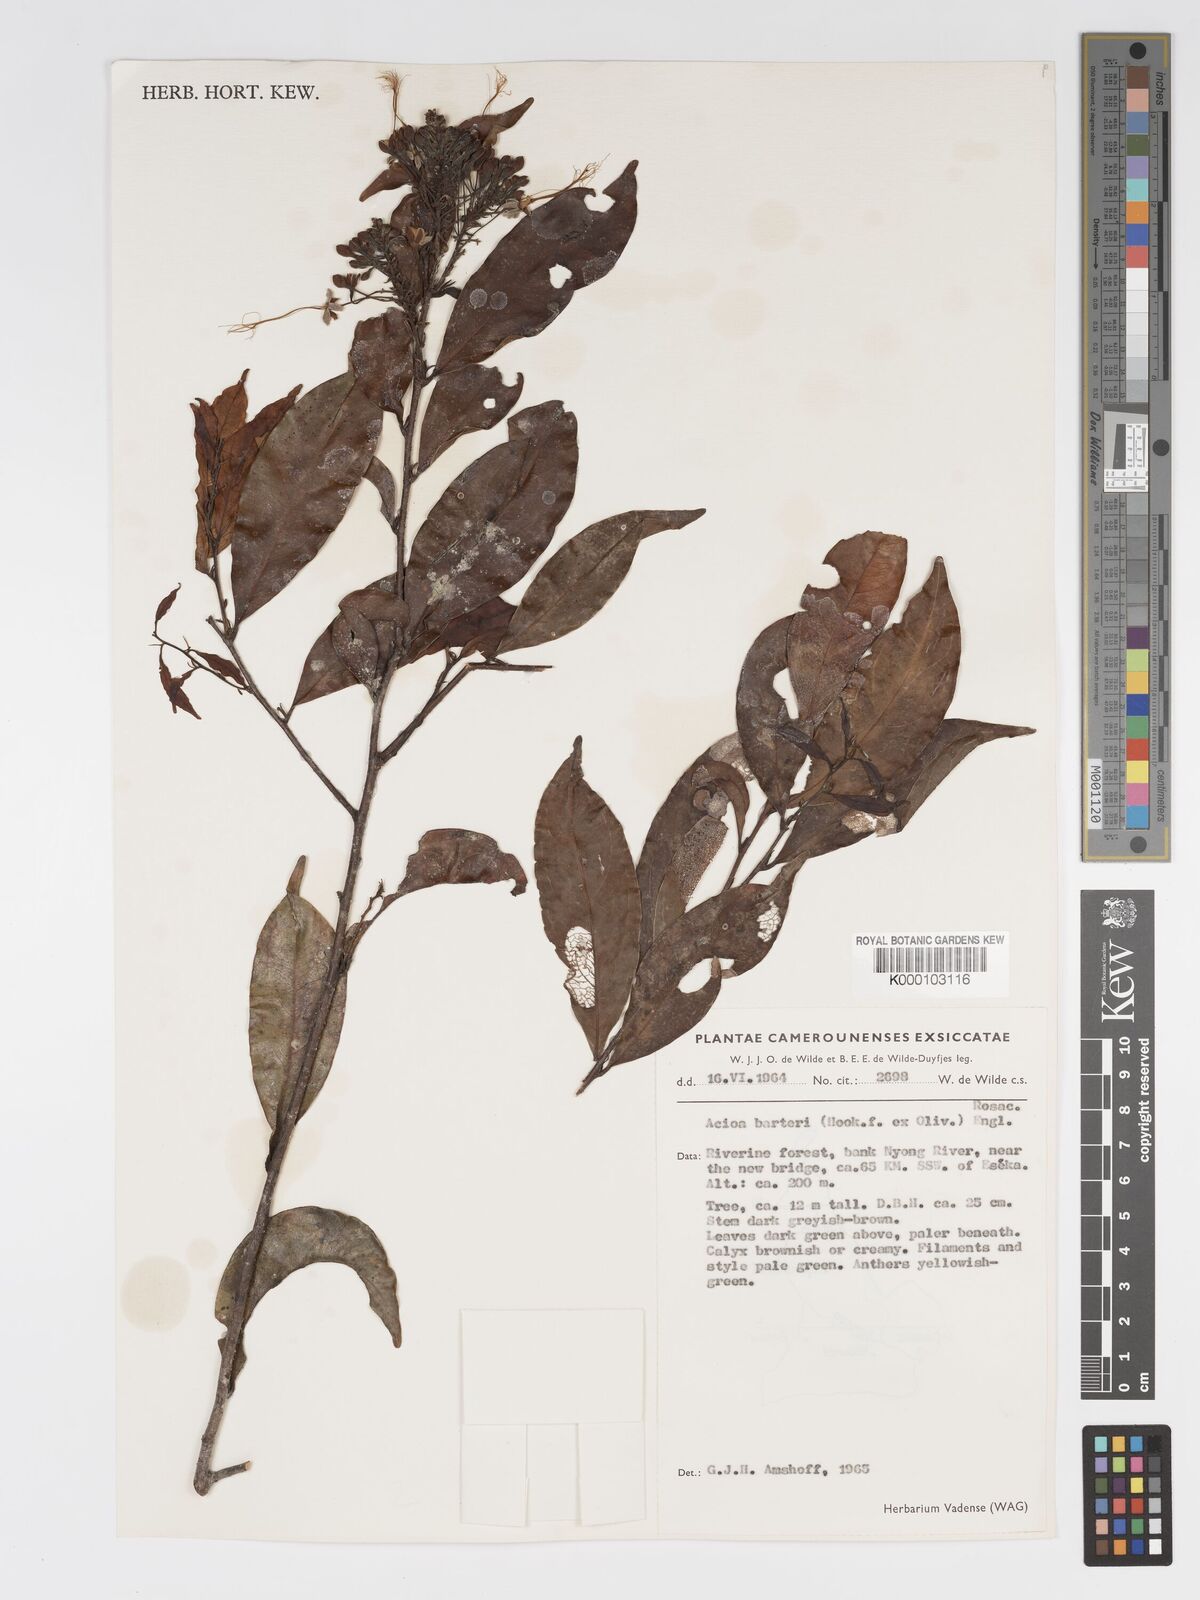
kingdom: Plantae
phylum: Tracheophyta
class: Magnoliopsida
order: Malpighiales
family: Chrysobalanaceae
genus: Dactyladenia
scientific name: Dactyladenia barteri
